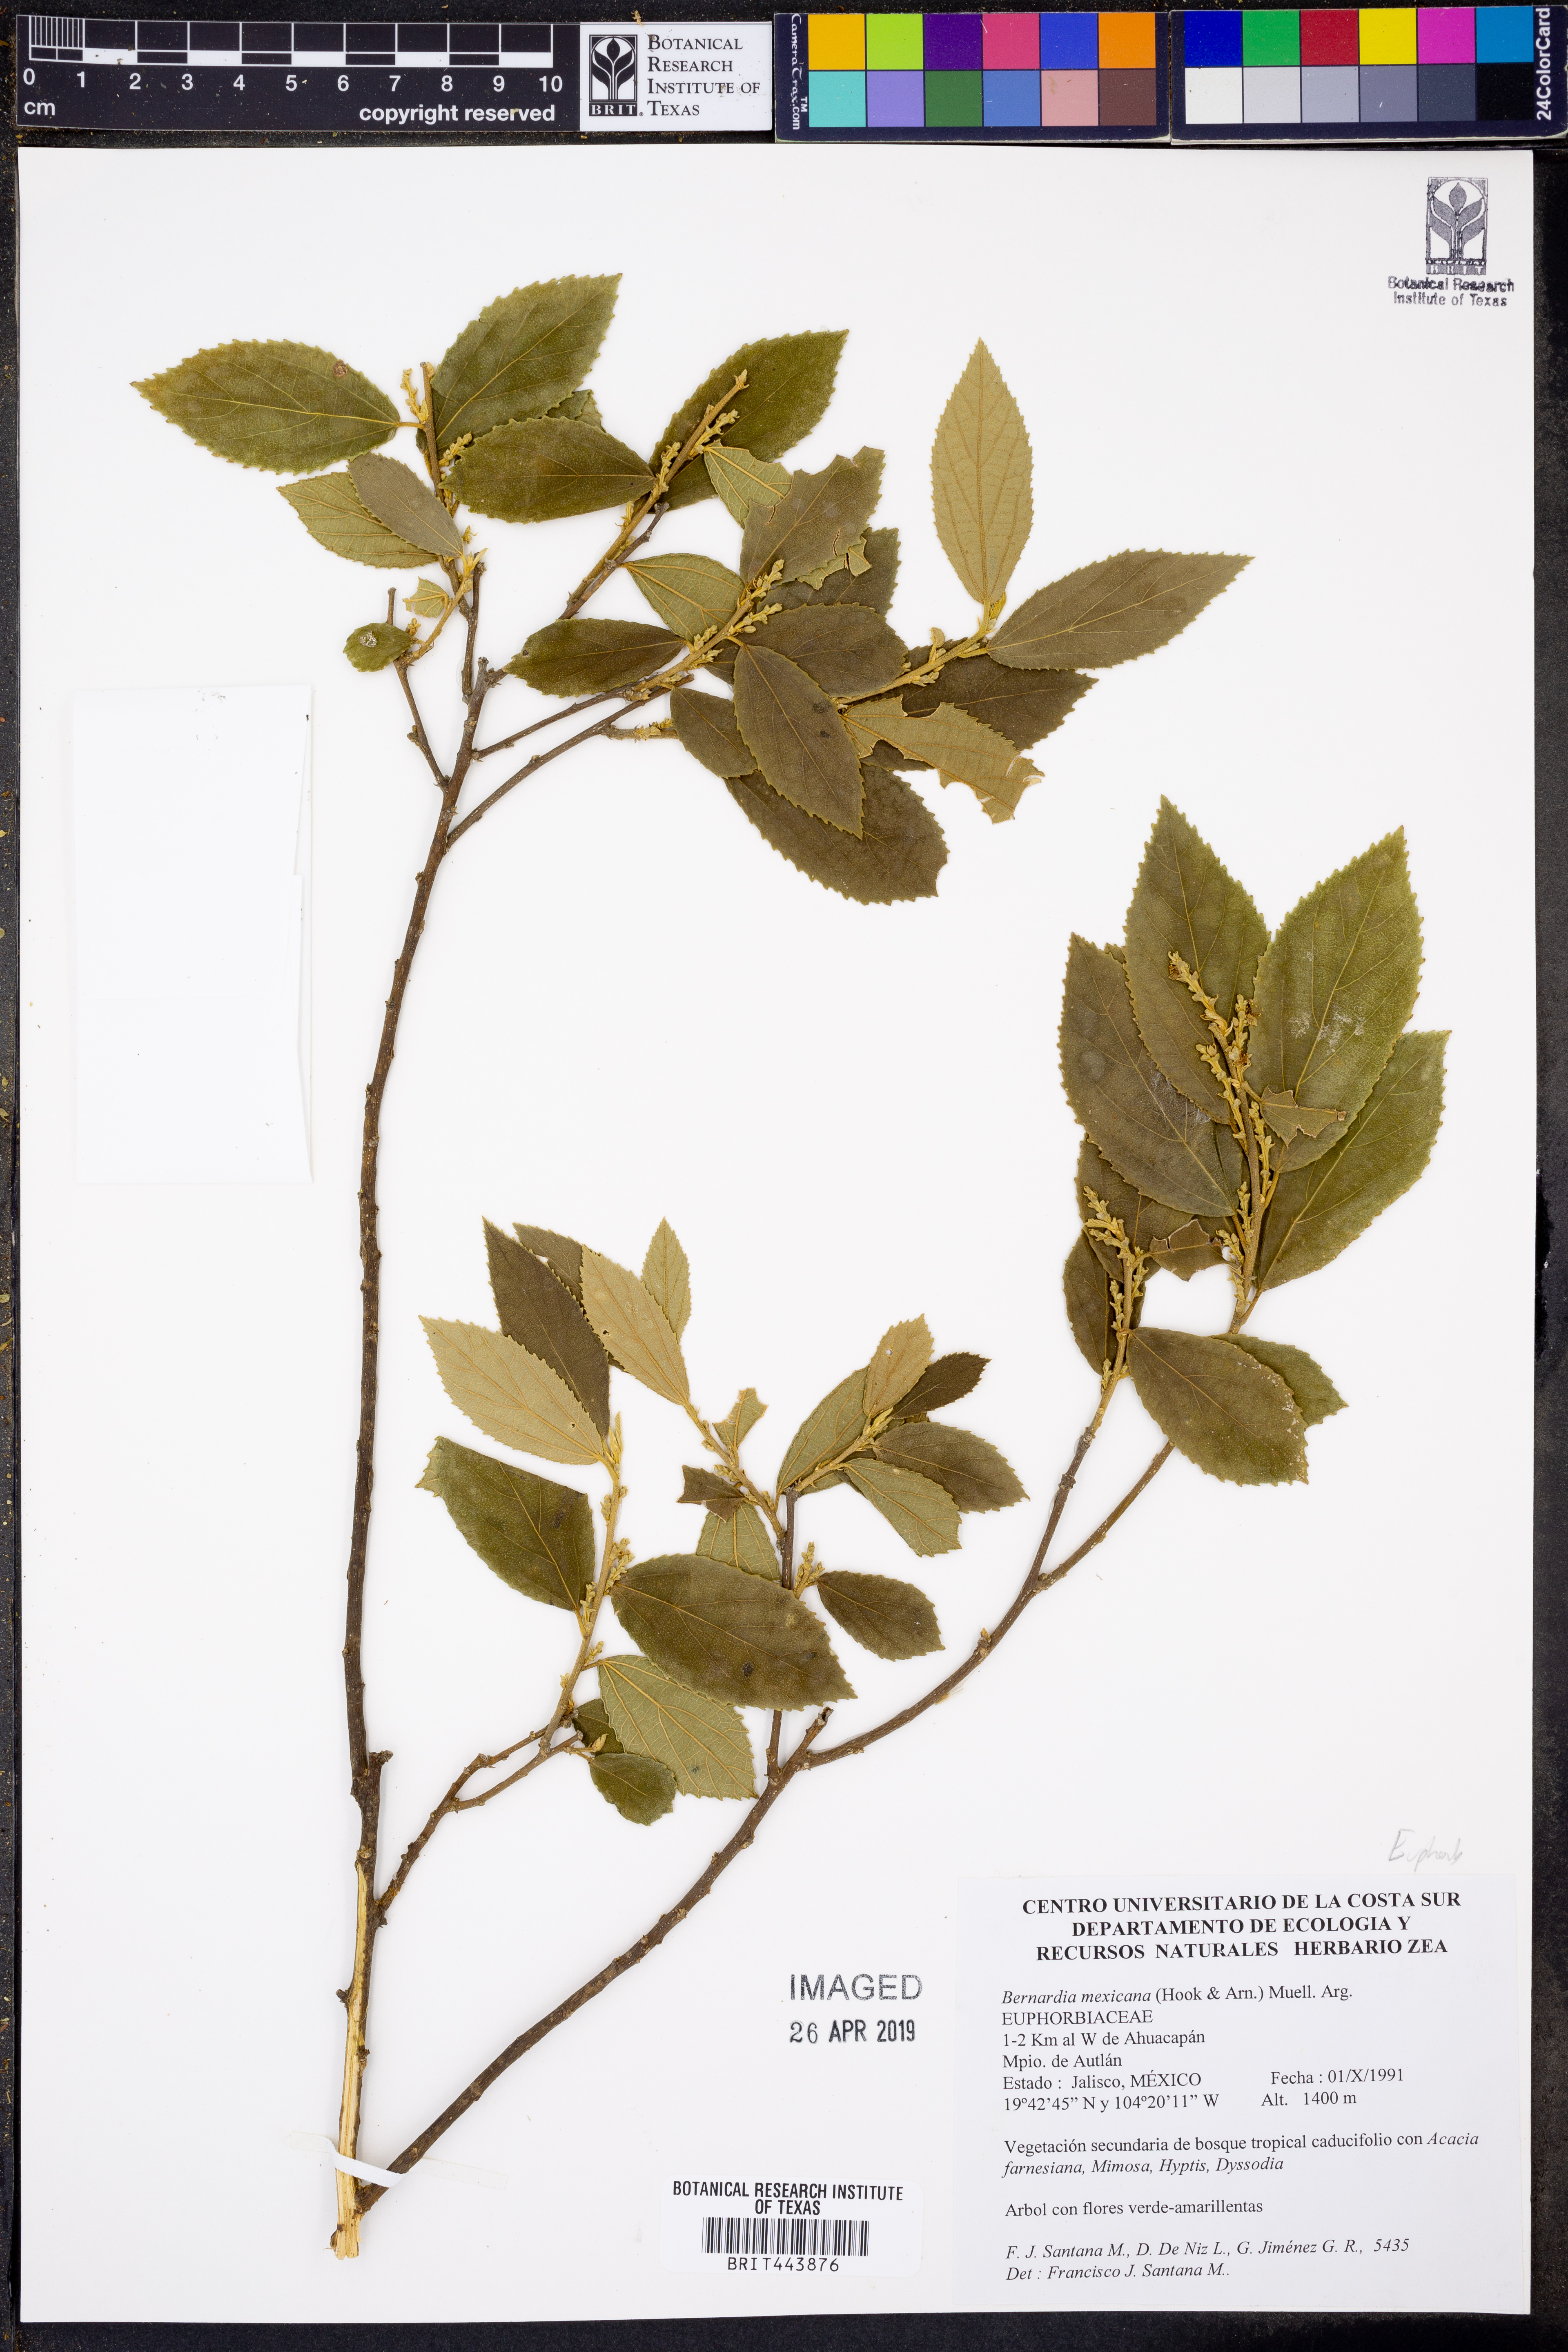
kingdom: Plantae
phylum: Tracheophyta
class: Magnoliopsida
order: Malpighiales
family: Euphorbiaceae
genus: Bernardia
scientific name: Bernardia mexicana
